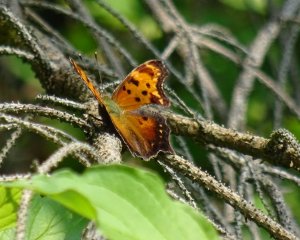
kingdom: Animalia
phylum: Arthropoda
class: Insecta
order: Lepidoptera
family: Nymphalidae
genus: Polygonia
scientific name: Polygonia progne
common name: Gray Comma
